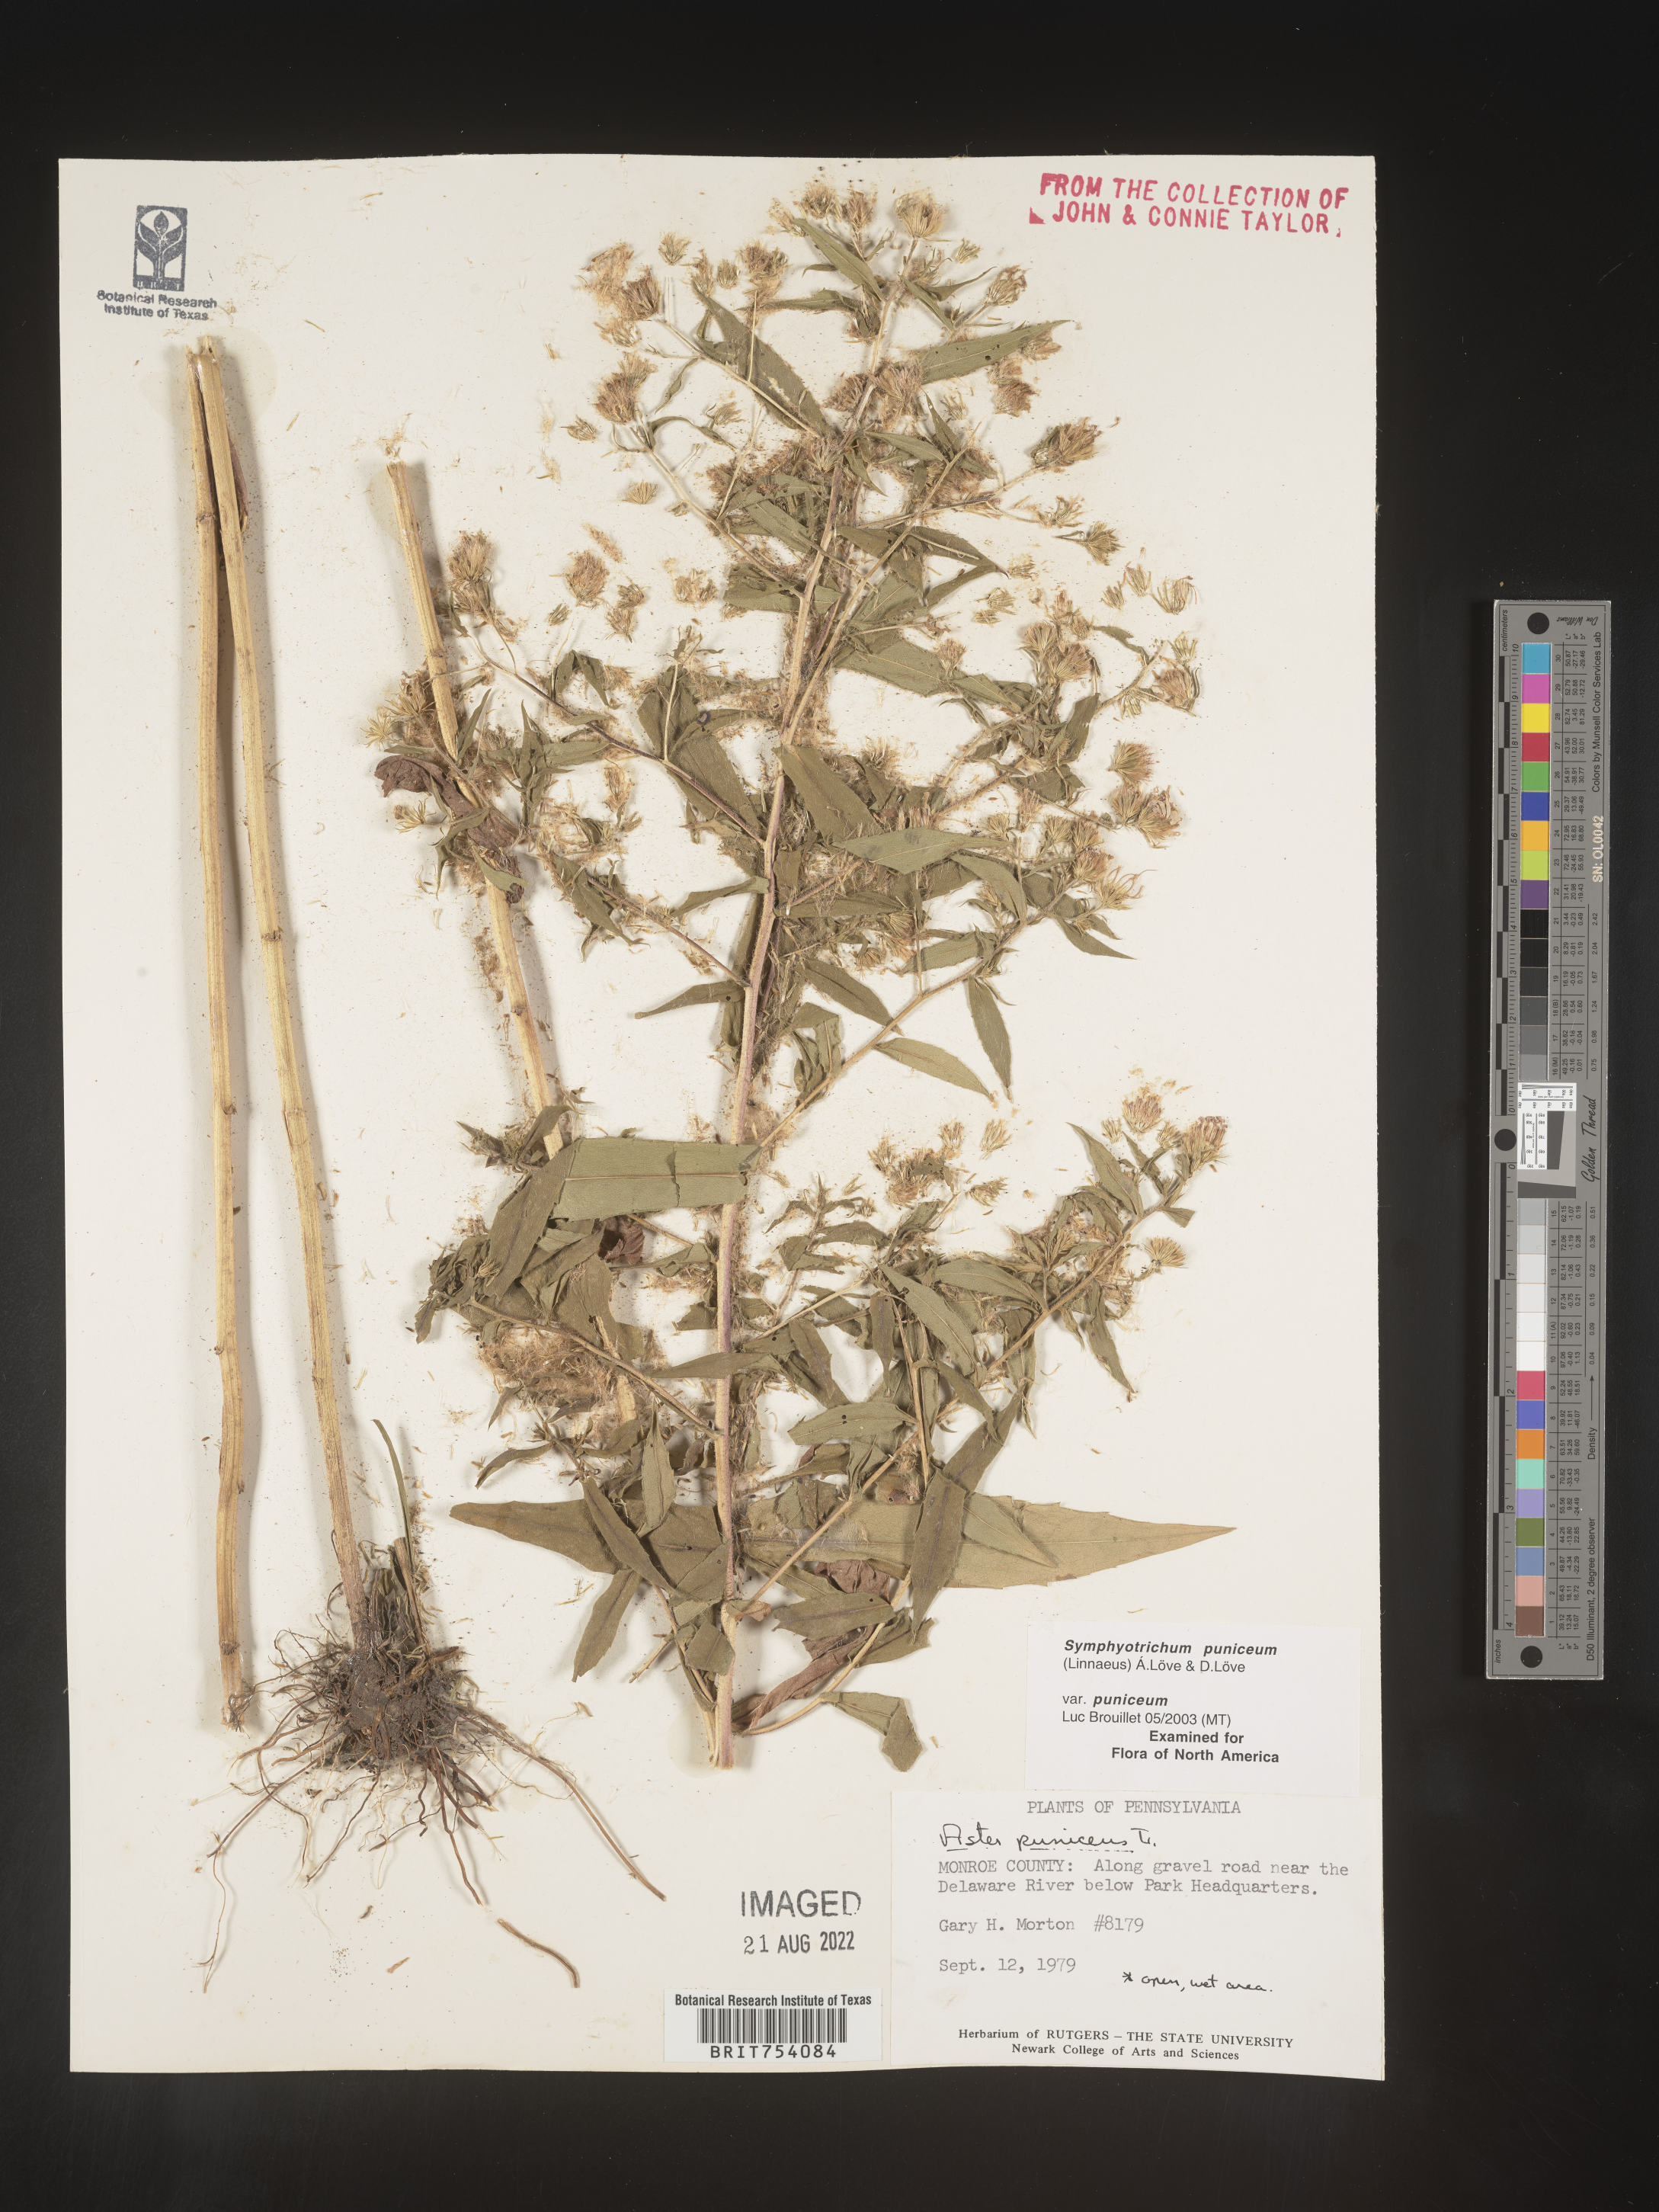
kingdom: Plantae
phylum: Tracheophyta
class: Magnoliopsida
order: Asterales
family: Asteraceae
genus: Symphyotrichum
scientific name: Symphyotrichum puniceum
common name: Bog aster
